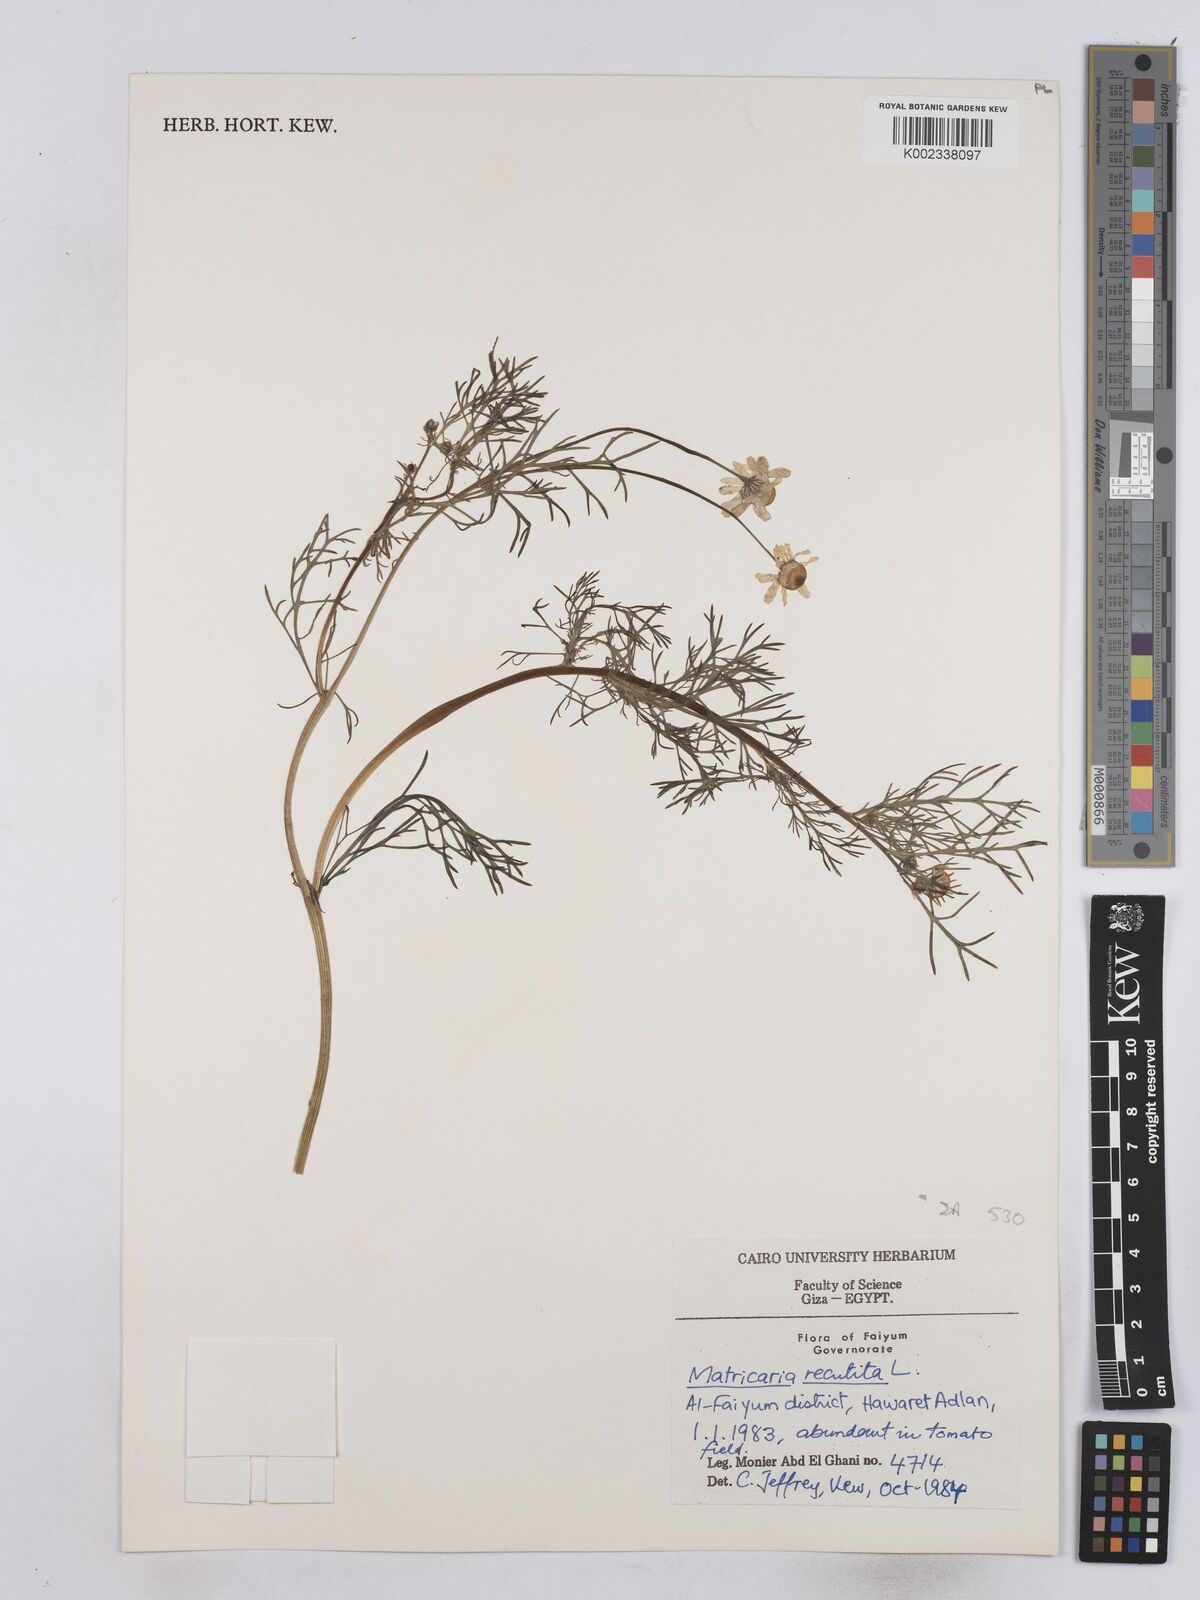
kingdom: Plantae
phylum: Tracheophyta
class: Magnoliopsida
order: Asterales
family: Asteraceae
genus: Matricaria
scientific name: Matricaria chamomilla
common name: Scented mayweed
